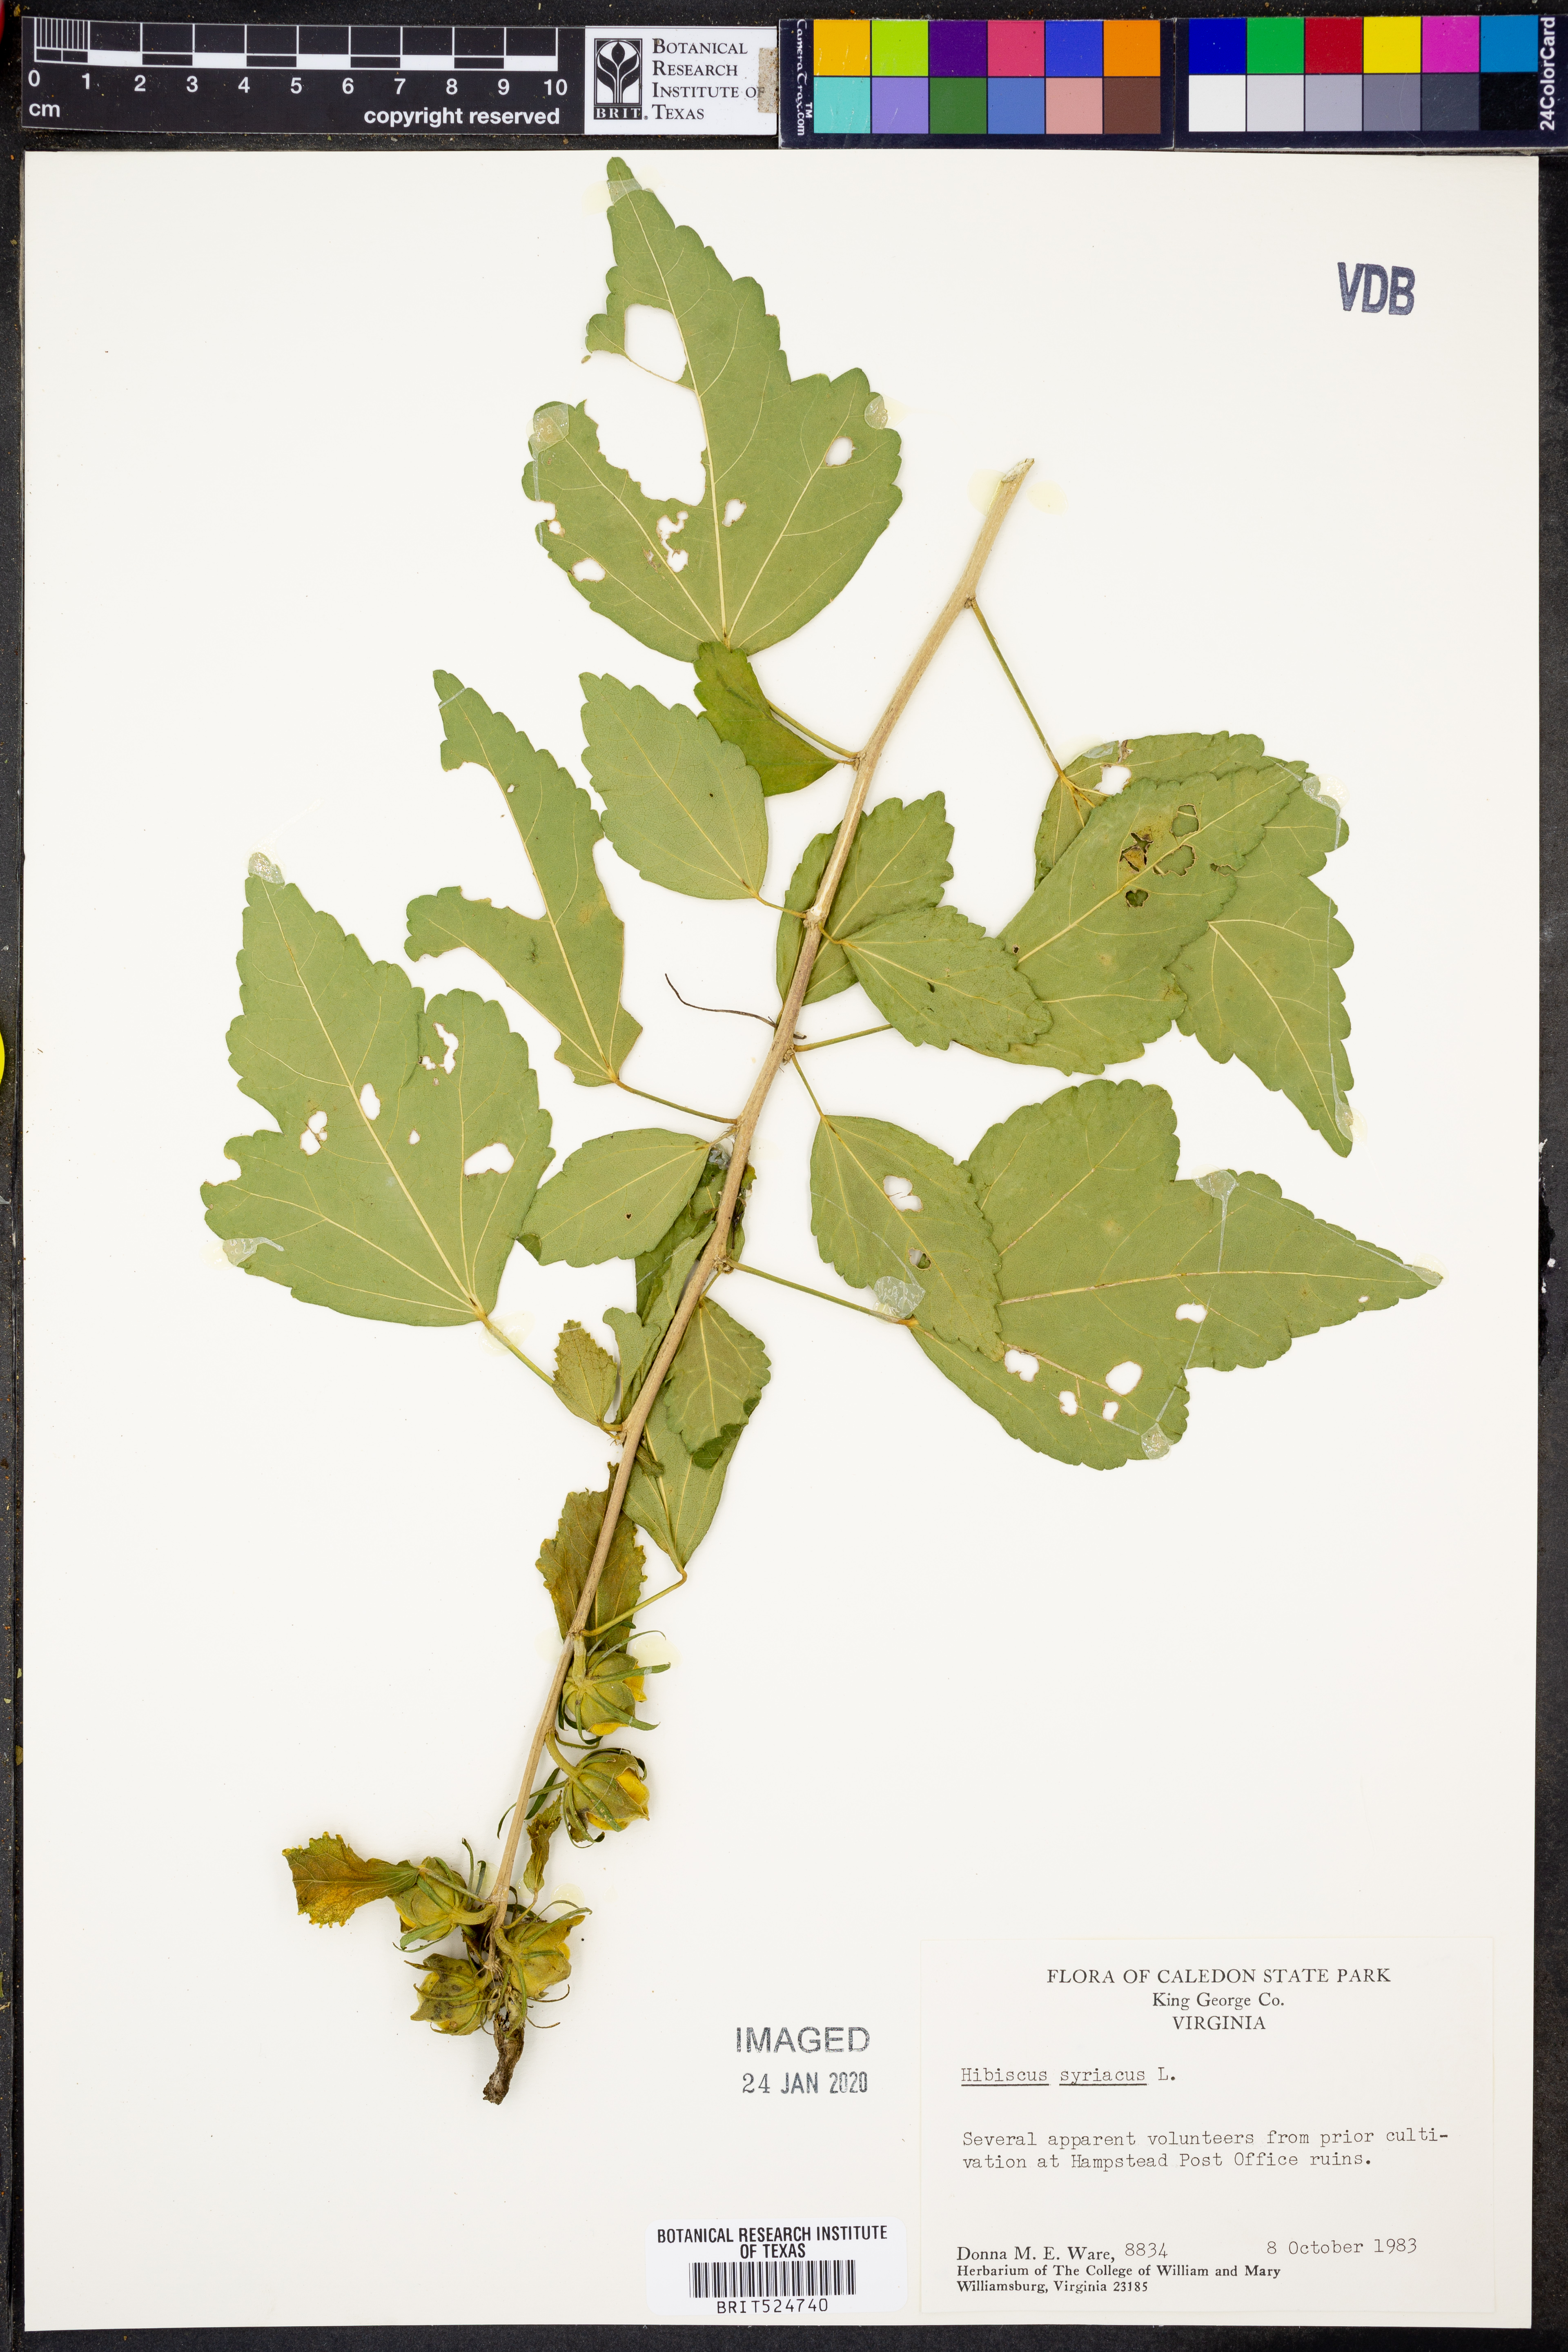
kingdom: Plantae
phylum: Tracheophyta
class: Magnoliopsida
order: Malvales
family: Malvaceae
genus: Hibiscus
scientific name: Hibiscus syriacus
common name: Syrian ketmia
